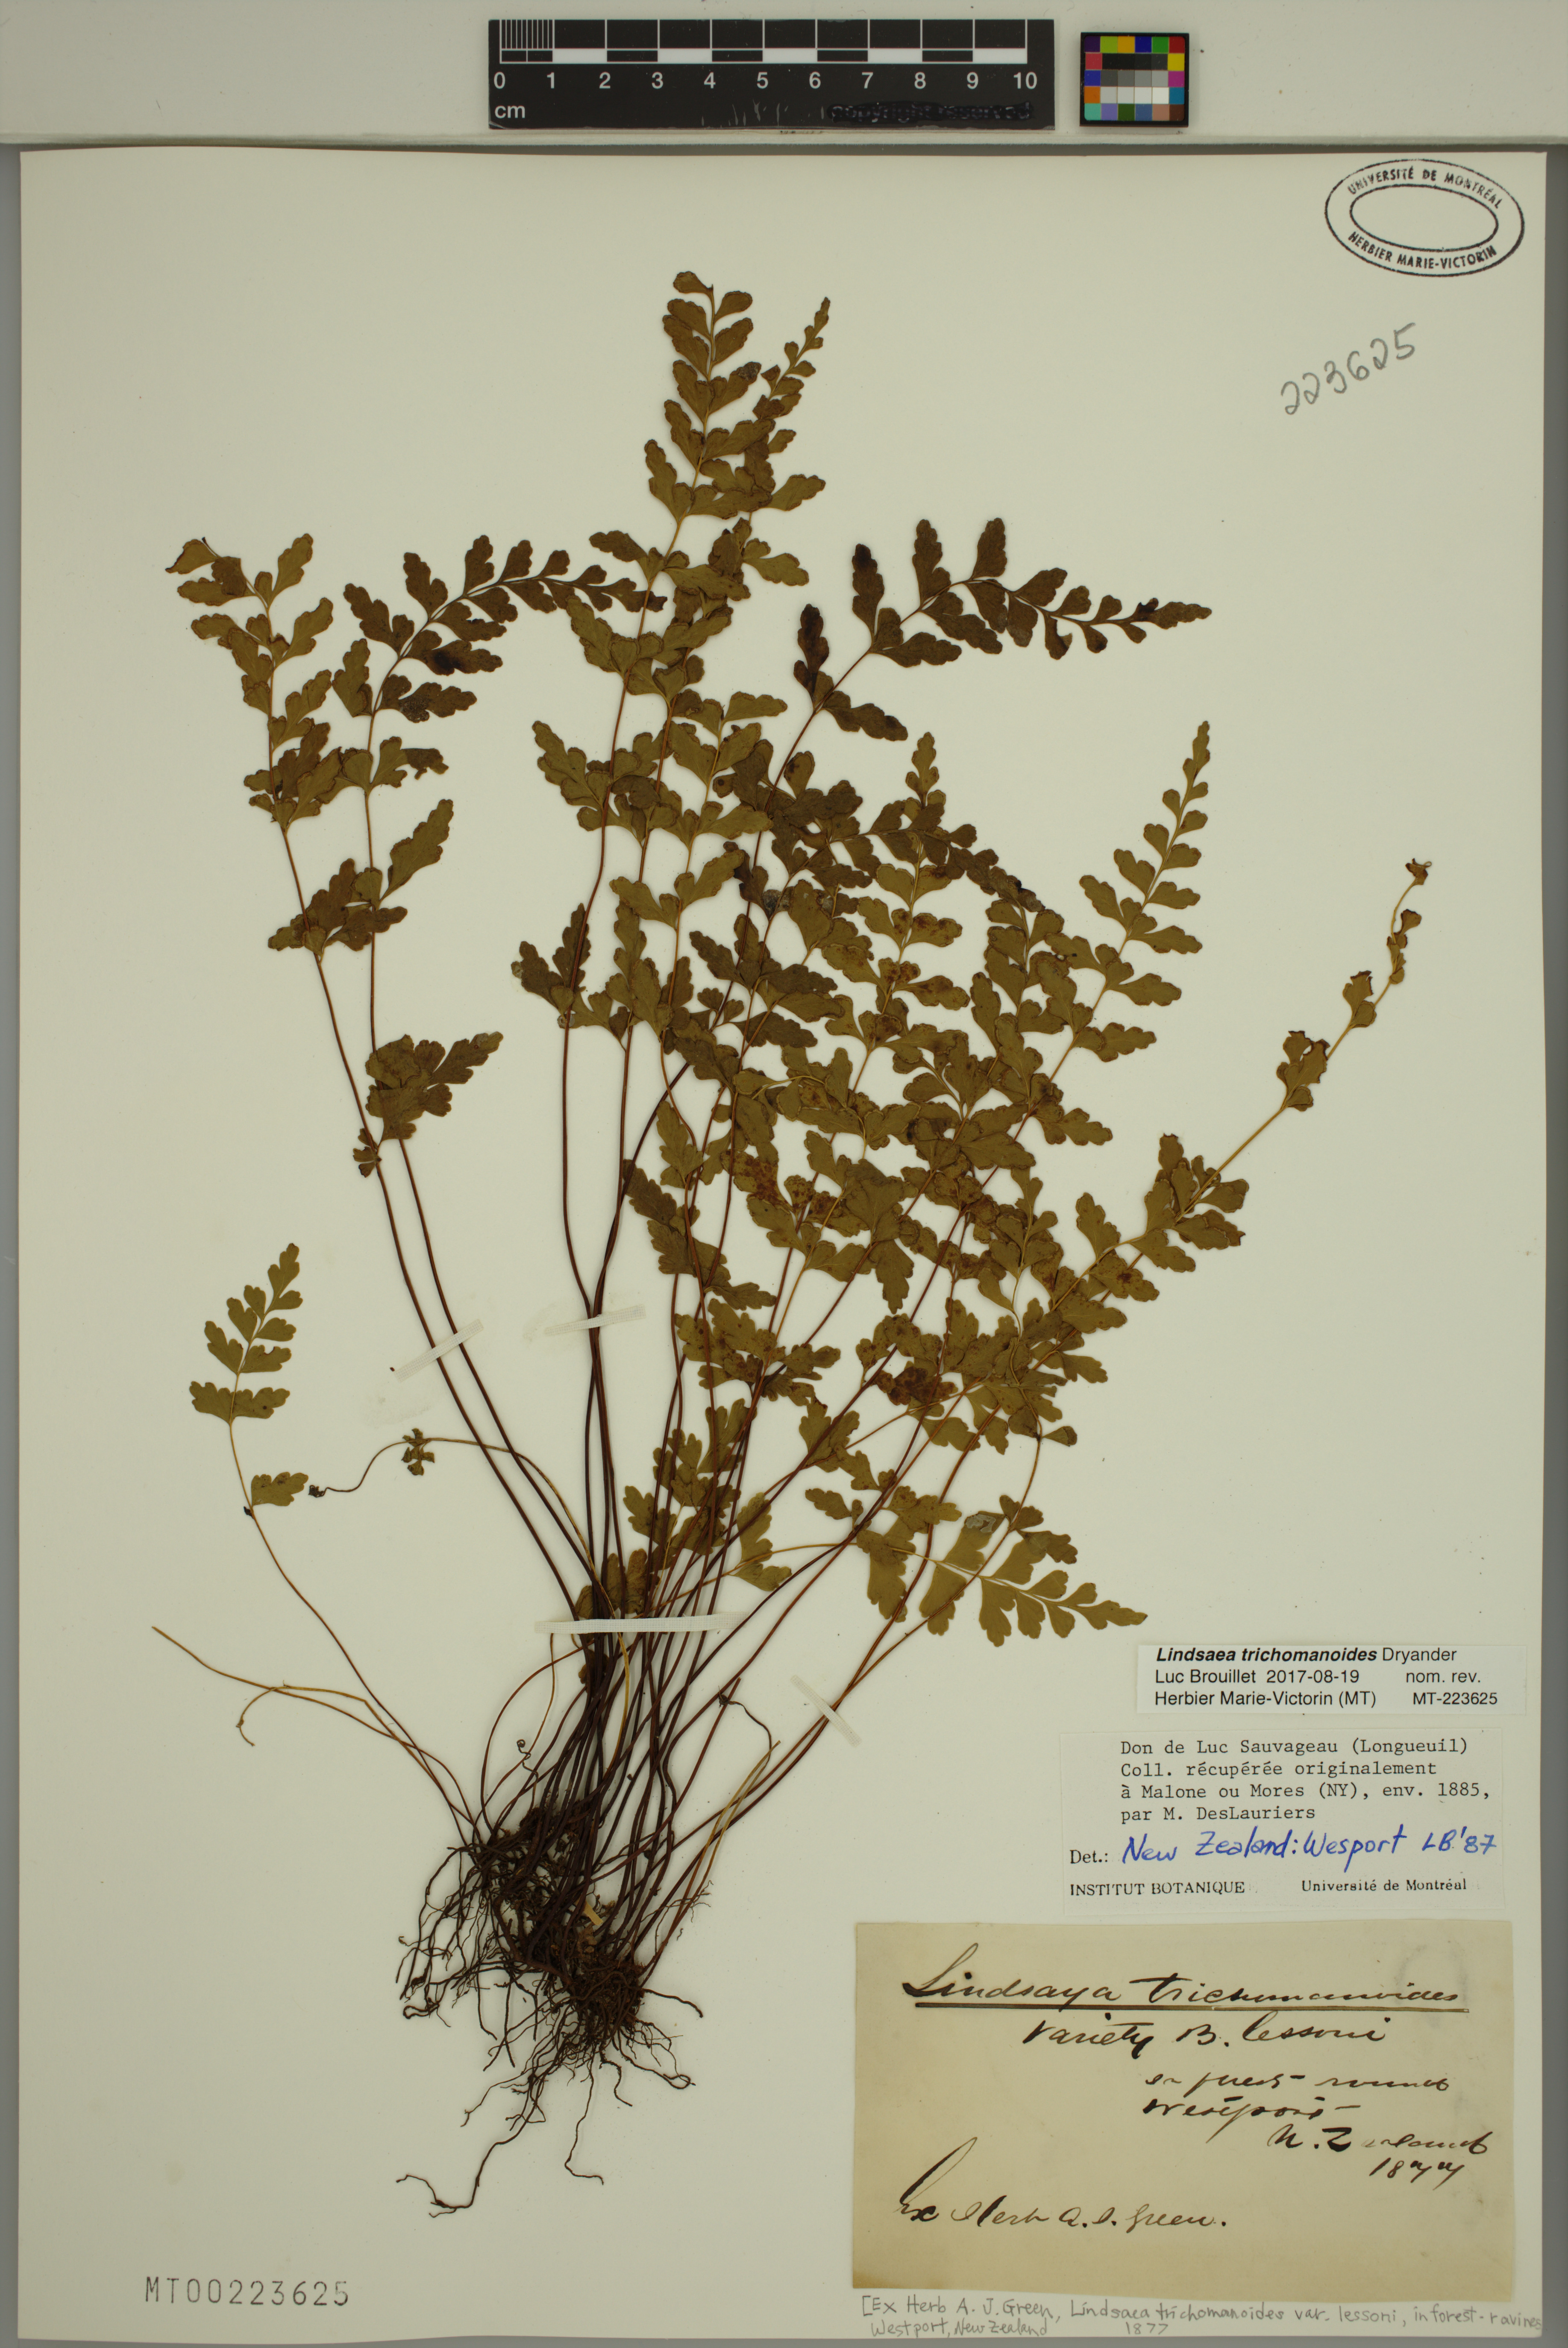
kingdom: Plantae
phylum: Tracheophyta
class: Polypodiopsida
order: Polypodiales
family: Lindsaeaceae
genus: Lindsaea
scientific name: Lindsaea trichomanoides
